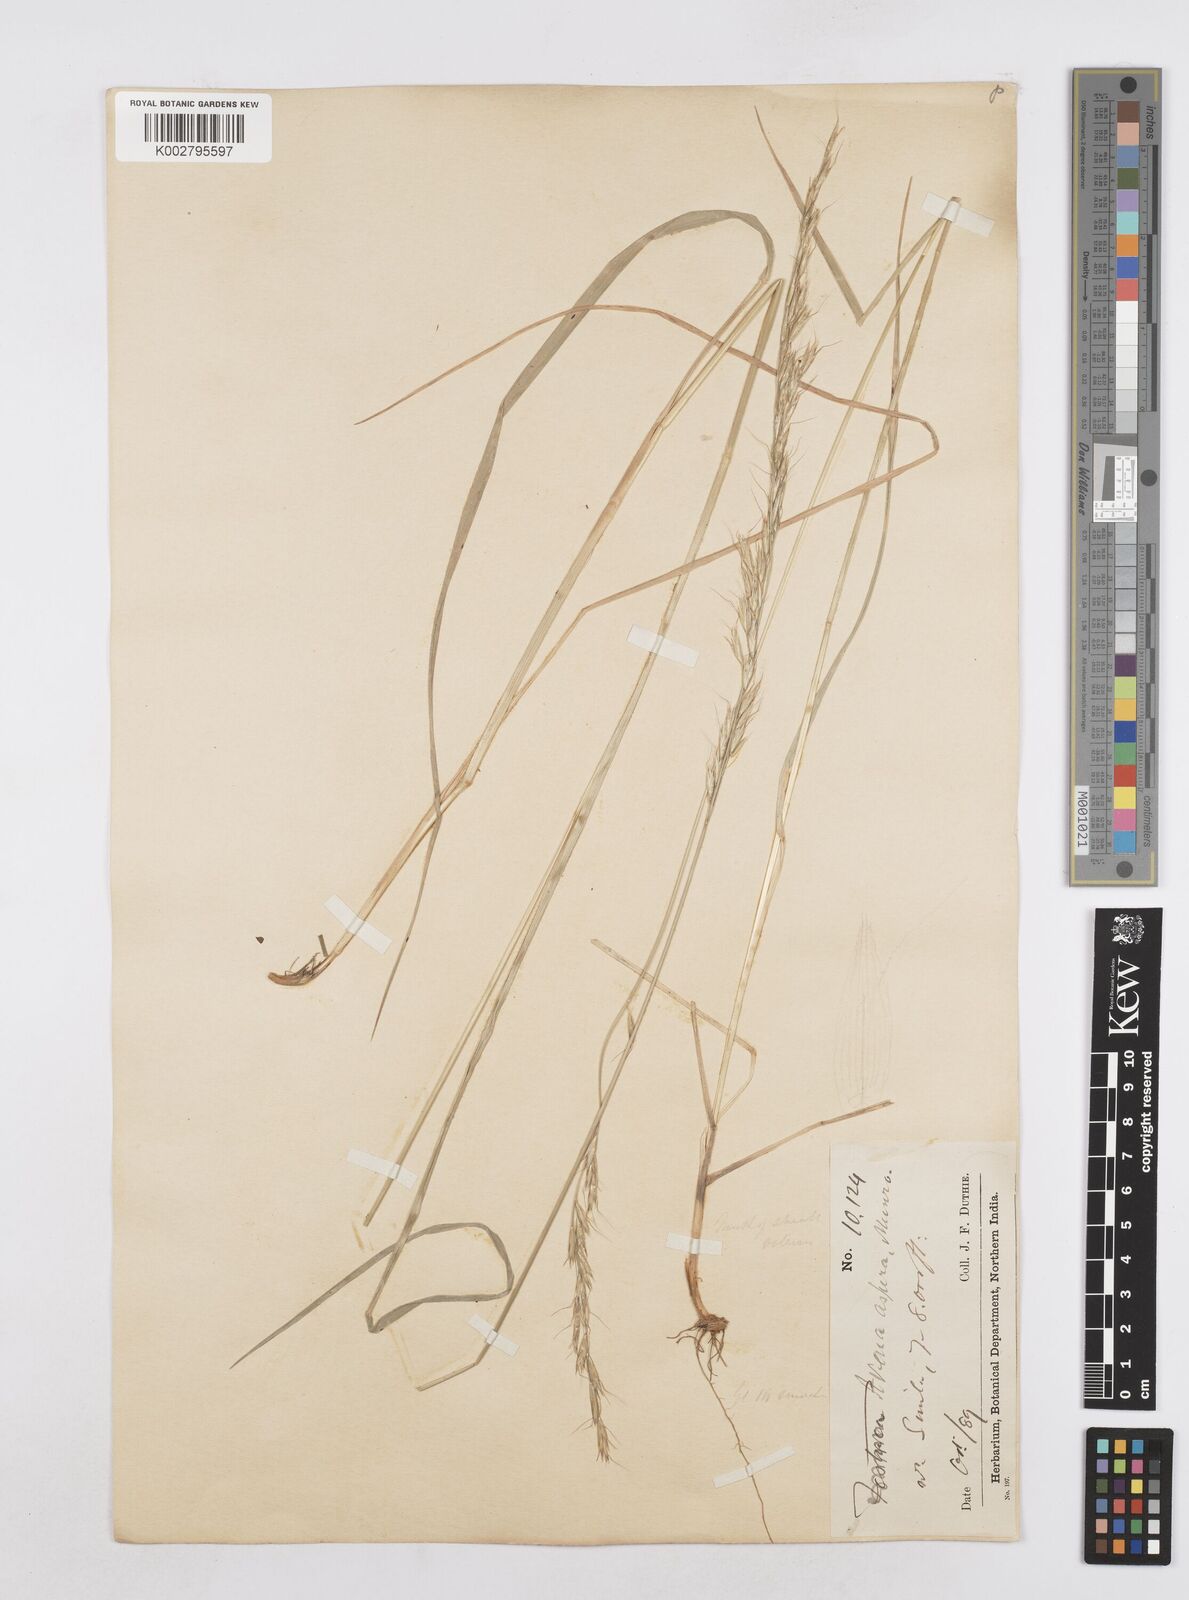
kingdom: Plantae
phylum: Tracheophyta
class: Liliopsida
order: Poales
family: Poaceae
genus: Helictotrichon
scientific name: Helictotrichon
